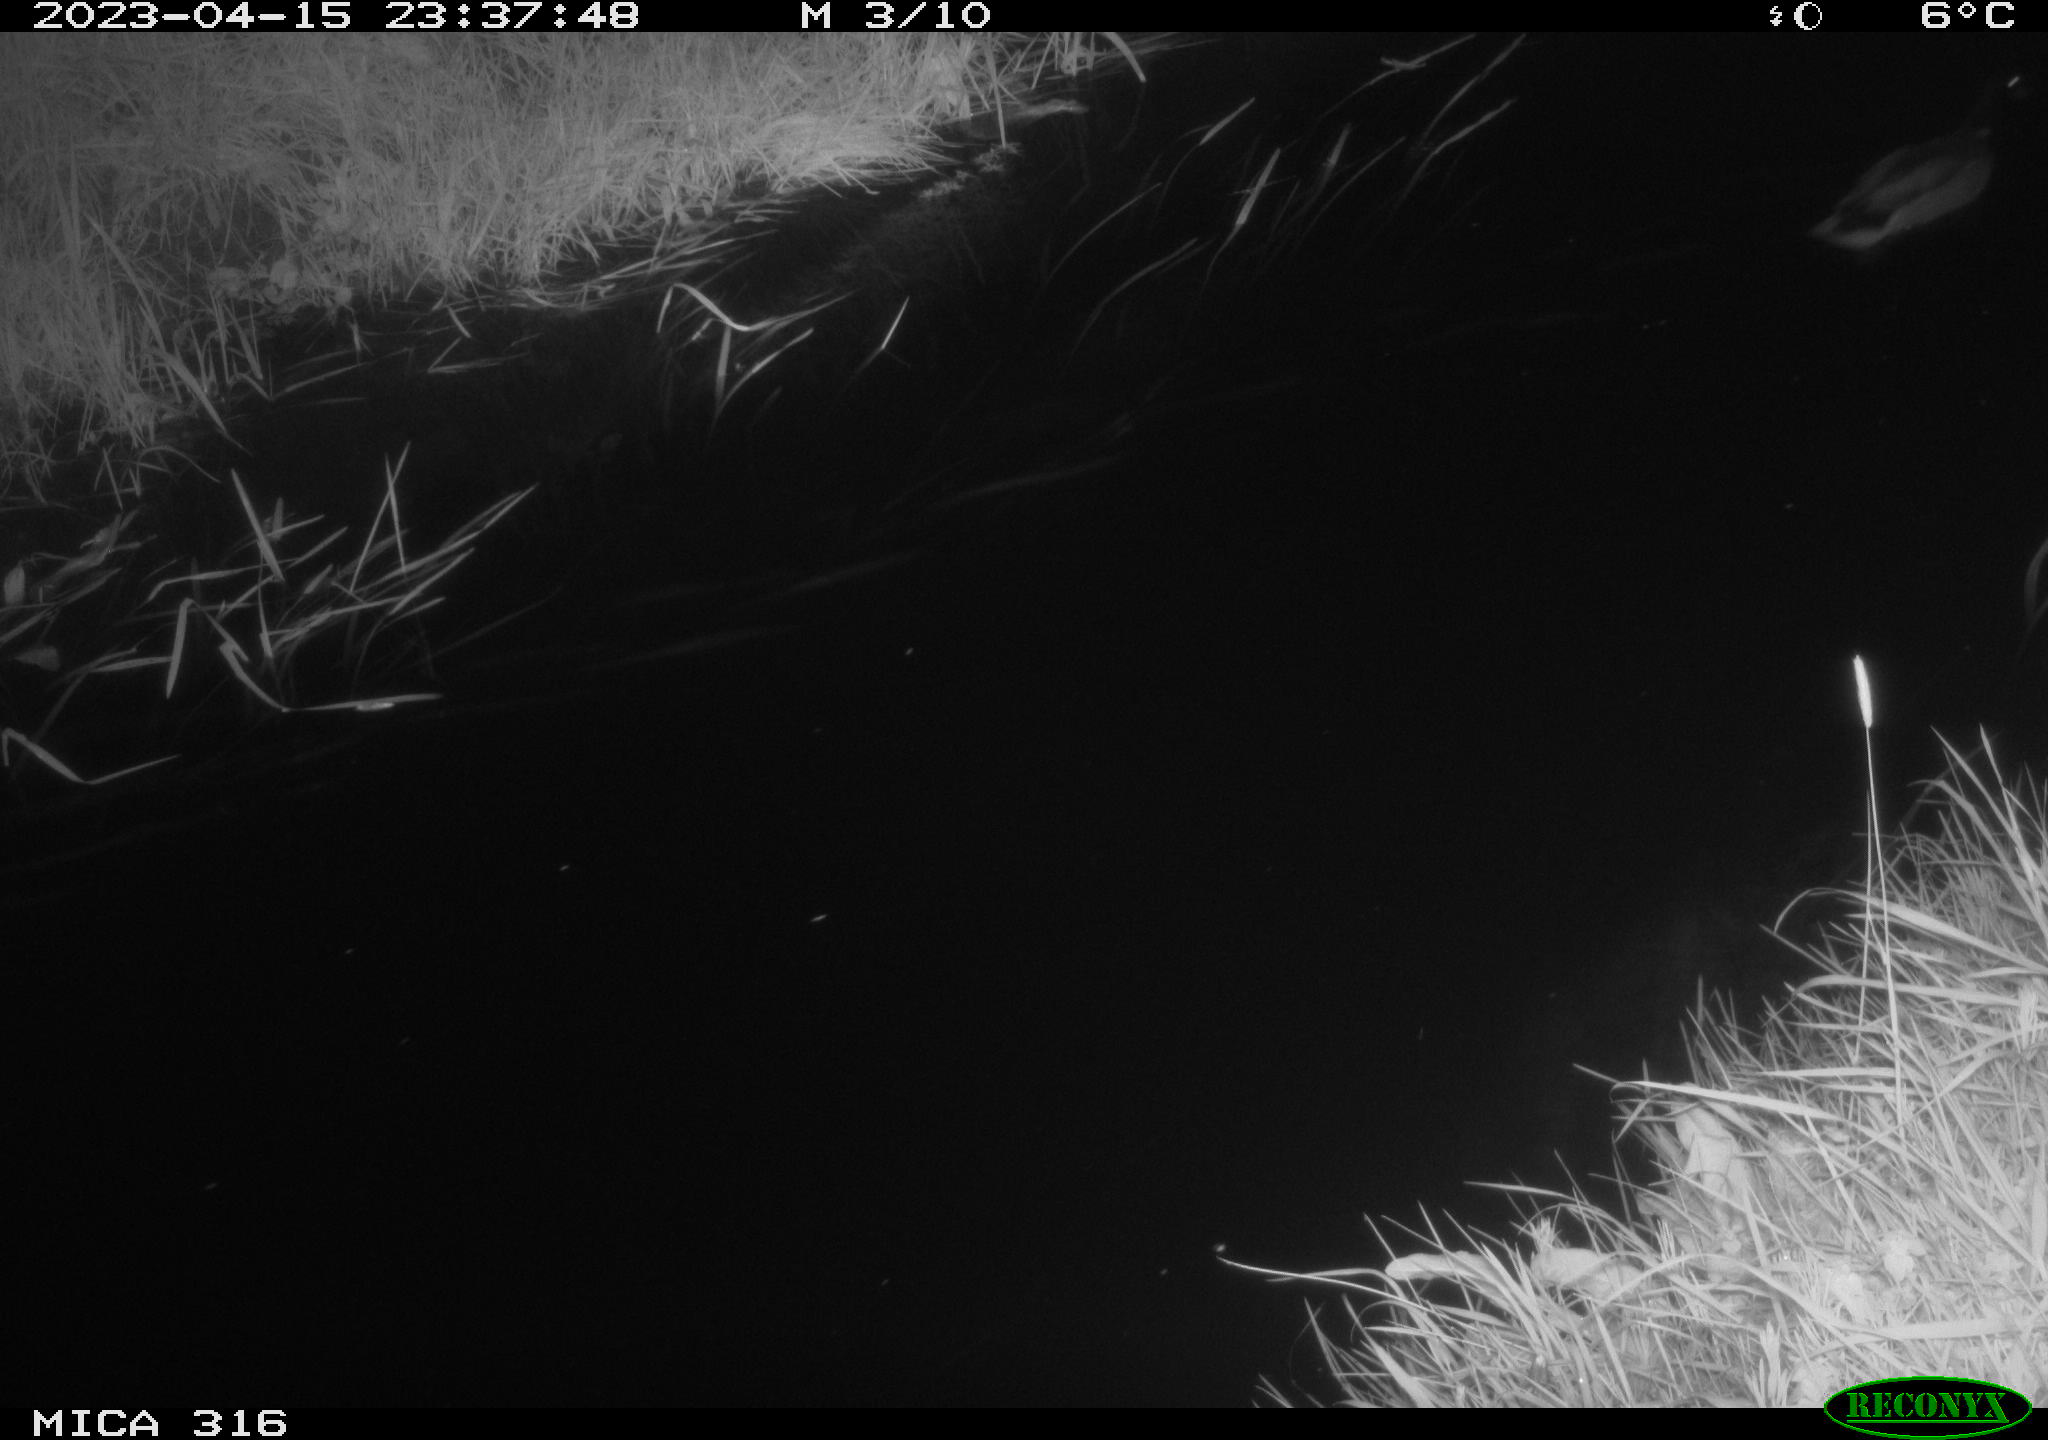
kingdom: Animalia
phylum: Chordata
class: Aves
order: Anseriformes
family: Anatidae
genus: Anas
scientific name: Anas
